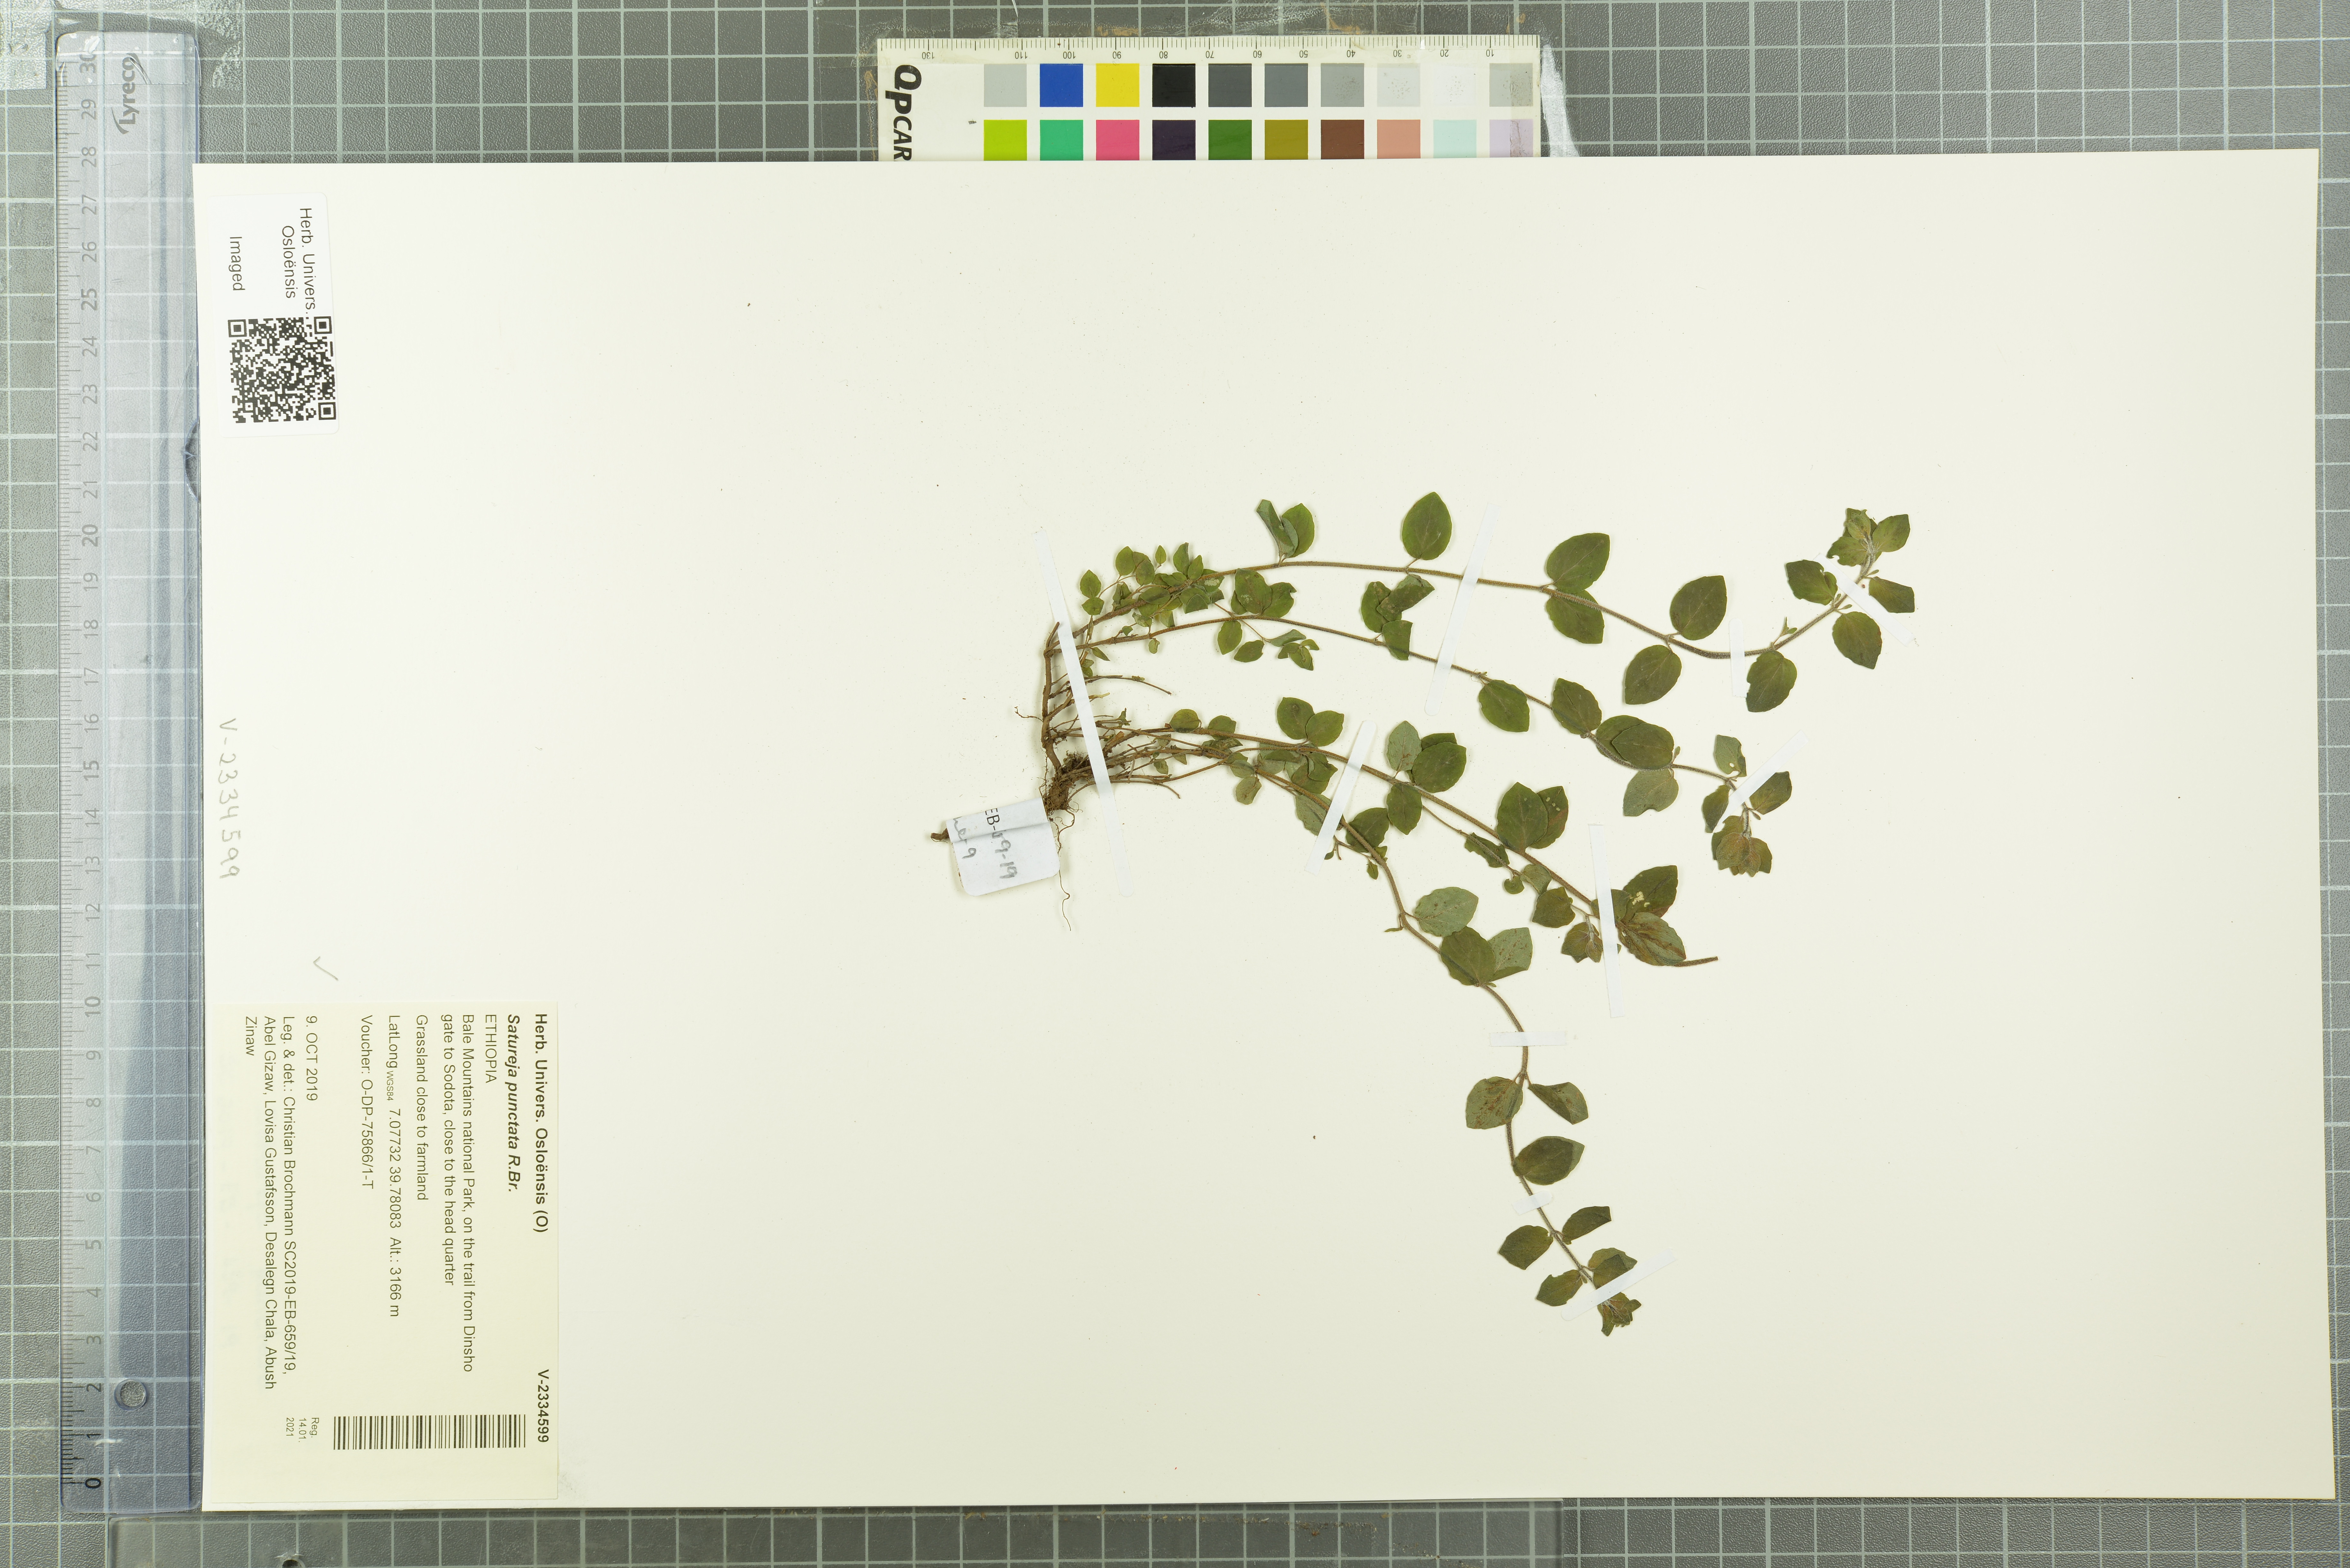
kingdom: Plantae
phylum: Tracheophyta
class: Magnoliopsida
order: Lamiales
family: Lamiaceae
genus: Micromeria
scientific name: Micromeria imbricata
